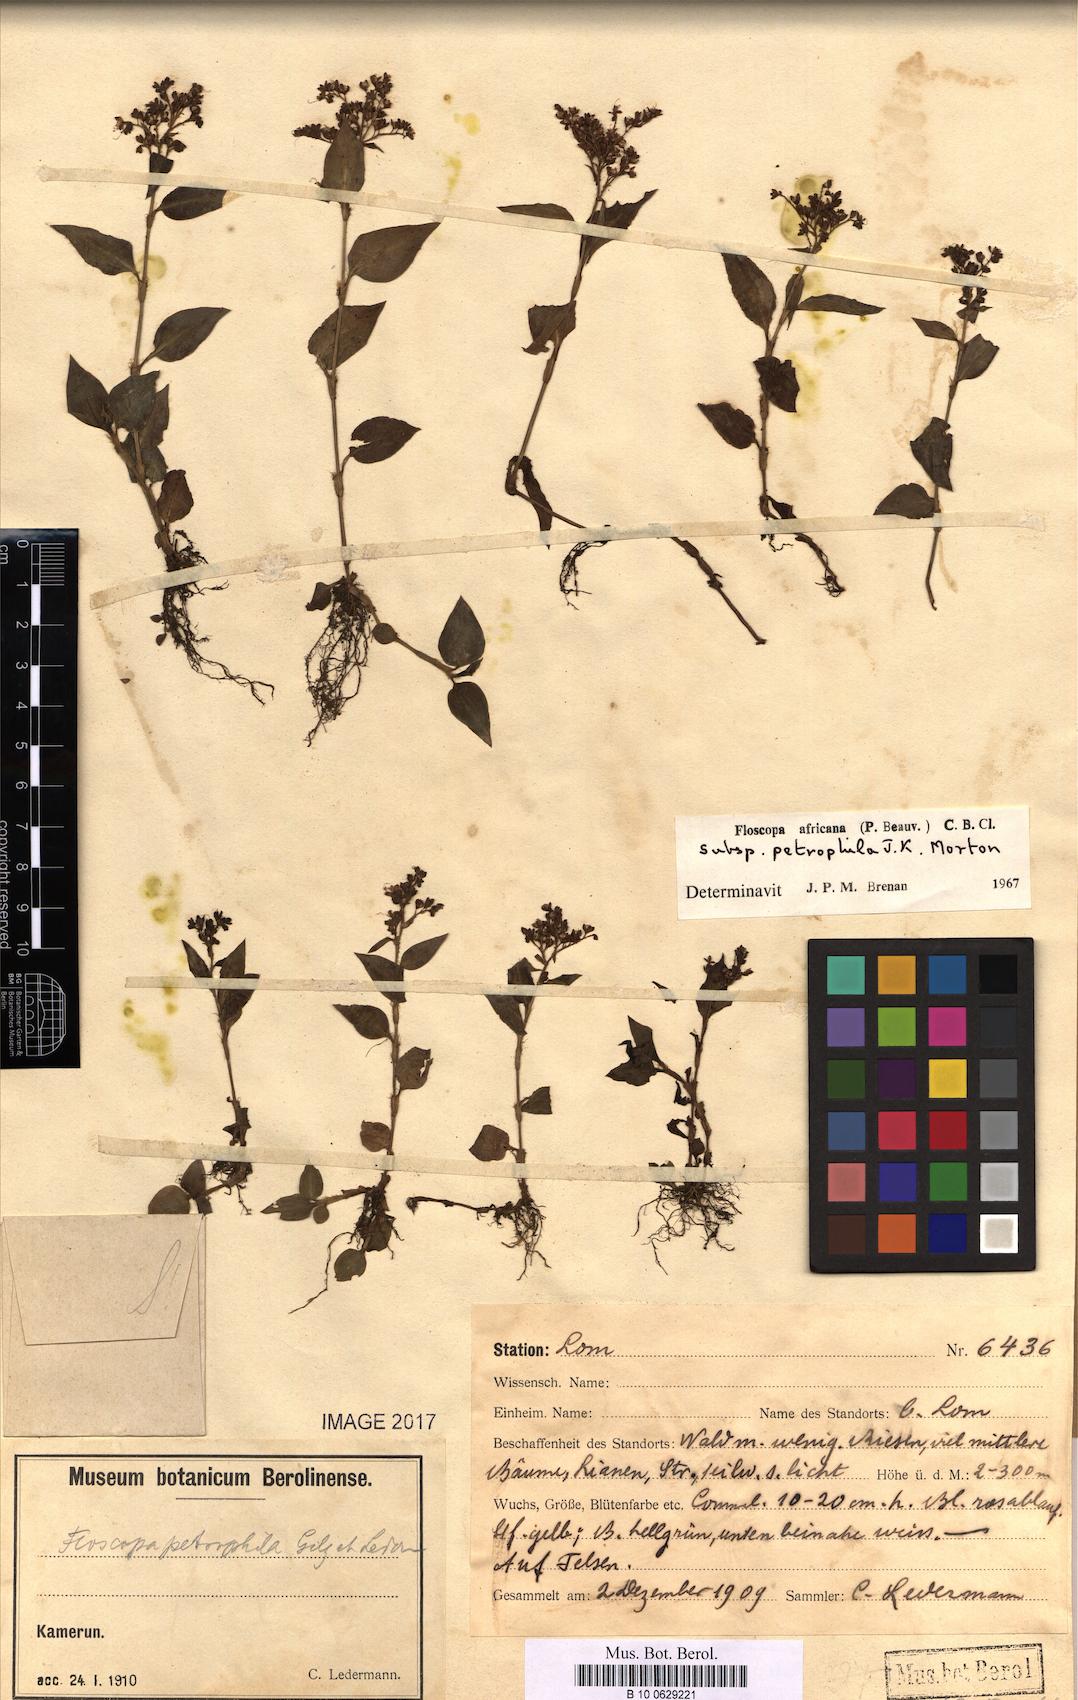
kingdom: Plantae
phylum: Tracheophyta
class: Liliopsida
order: Commelinales
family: Commelinaceae
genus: Floscopa
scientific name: Floscopa africana
